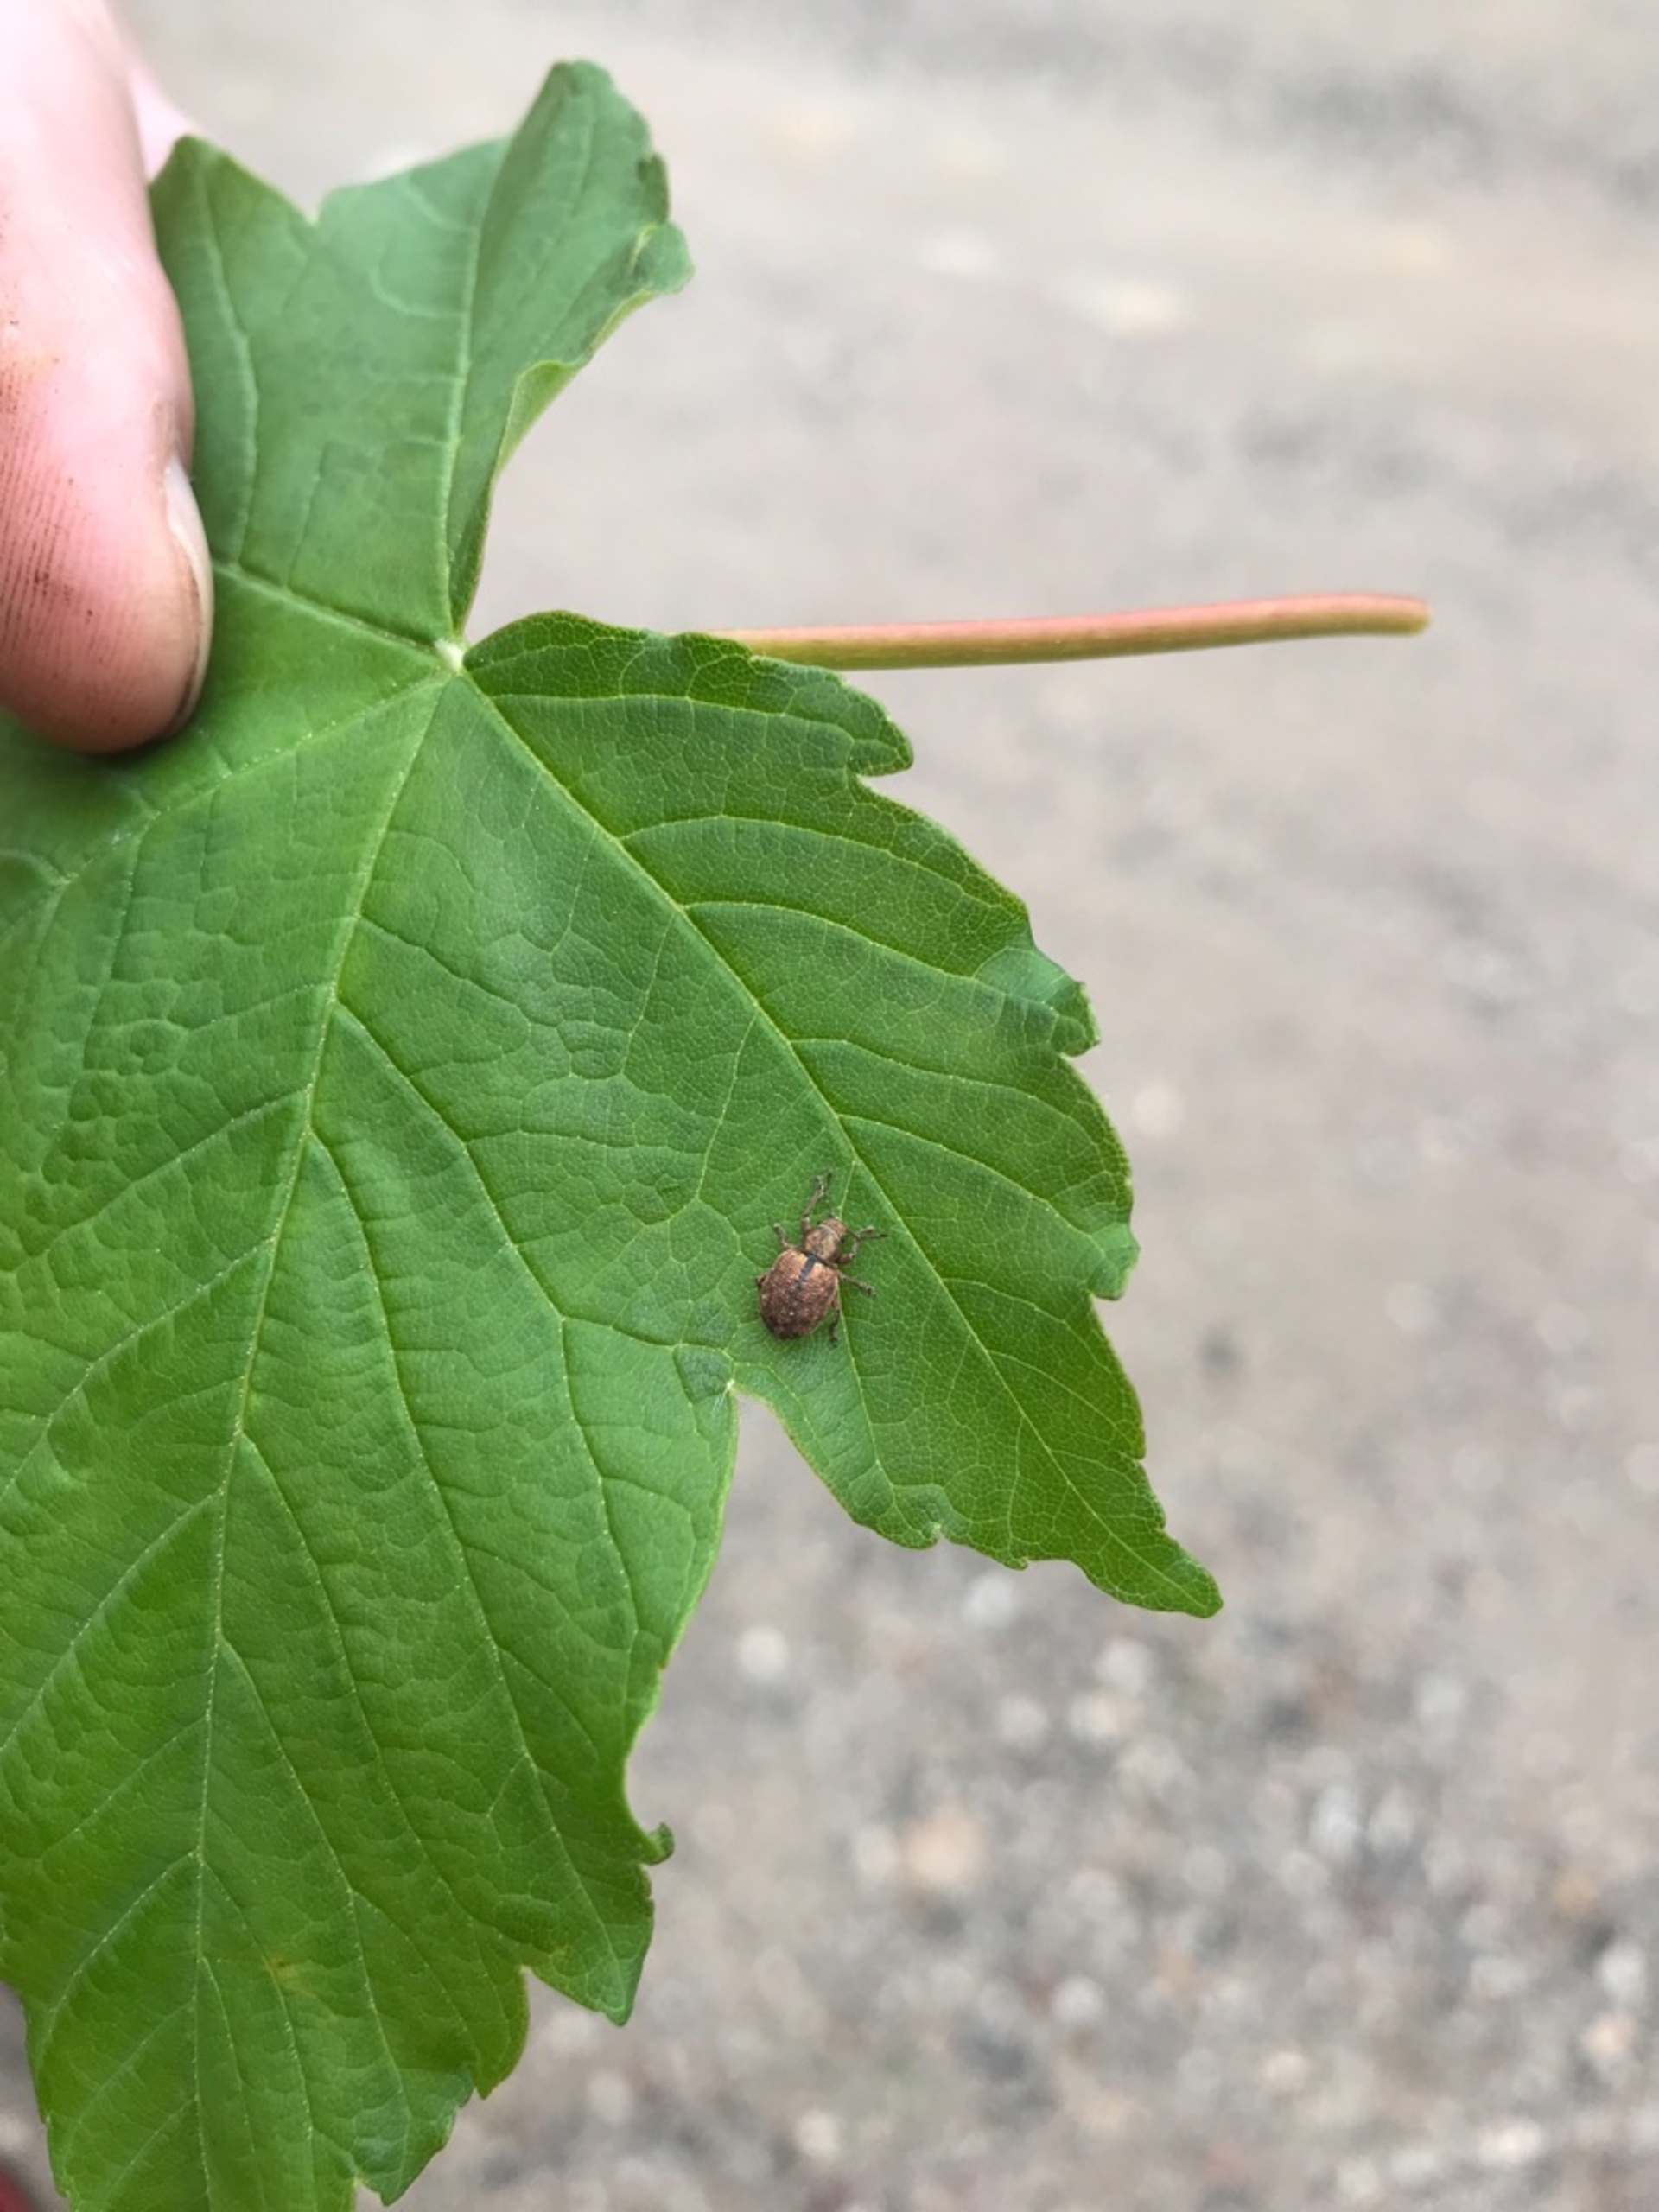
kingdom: Animalia
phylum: Arthropoda
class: Insecta
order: Coleoptera
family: Curculionidae
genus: Strophosoma
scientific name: Strophosoma melanogrammum
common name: Stribet gråsnude
